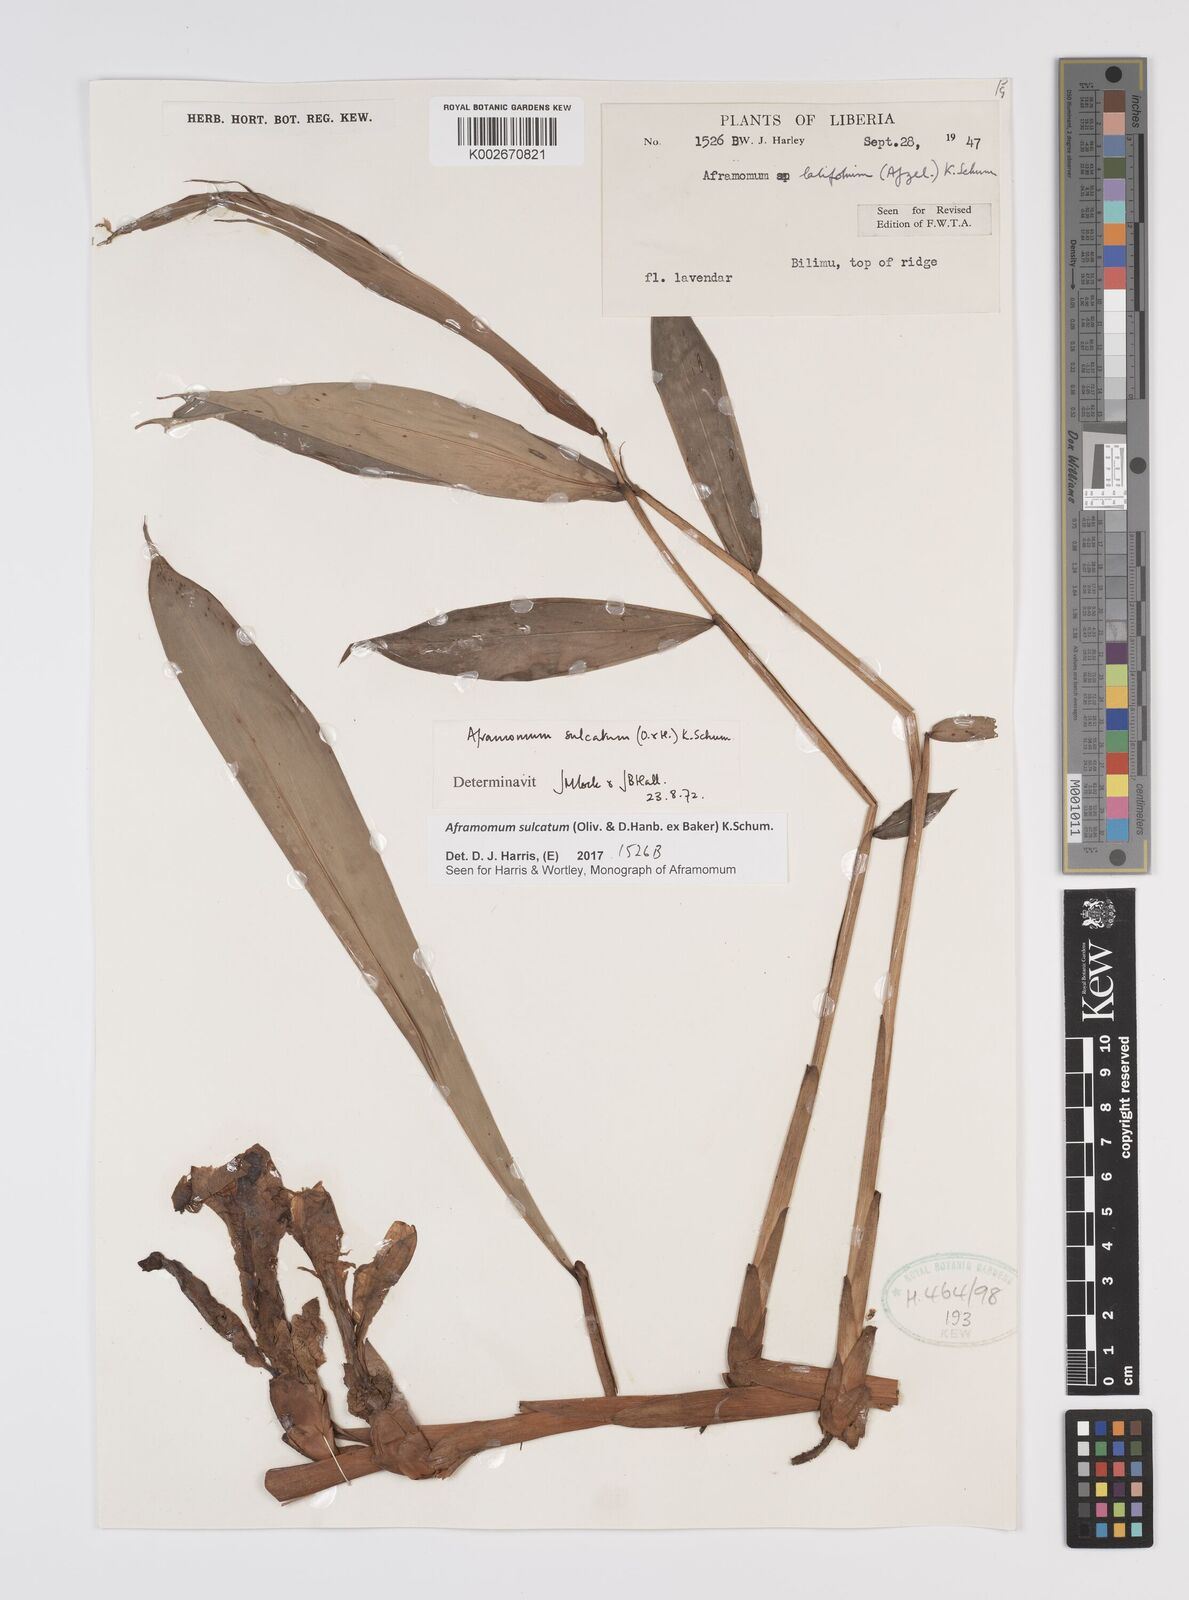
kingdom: Plantae
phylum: Tracheophyta
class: Liliopsida
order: Zingiberales
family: Zingiberaceae
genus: Aframomum
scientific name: Aframomum sulcatum
